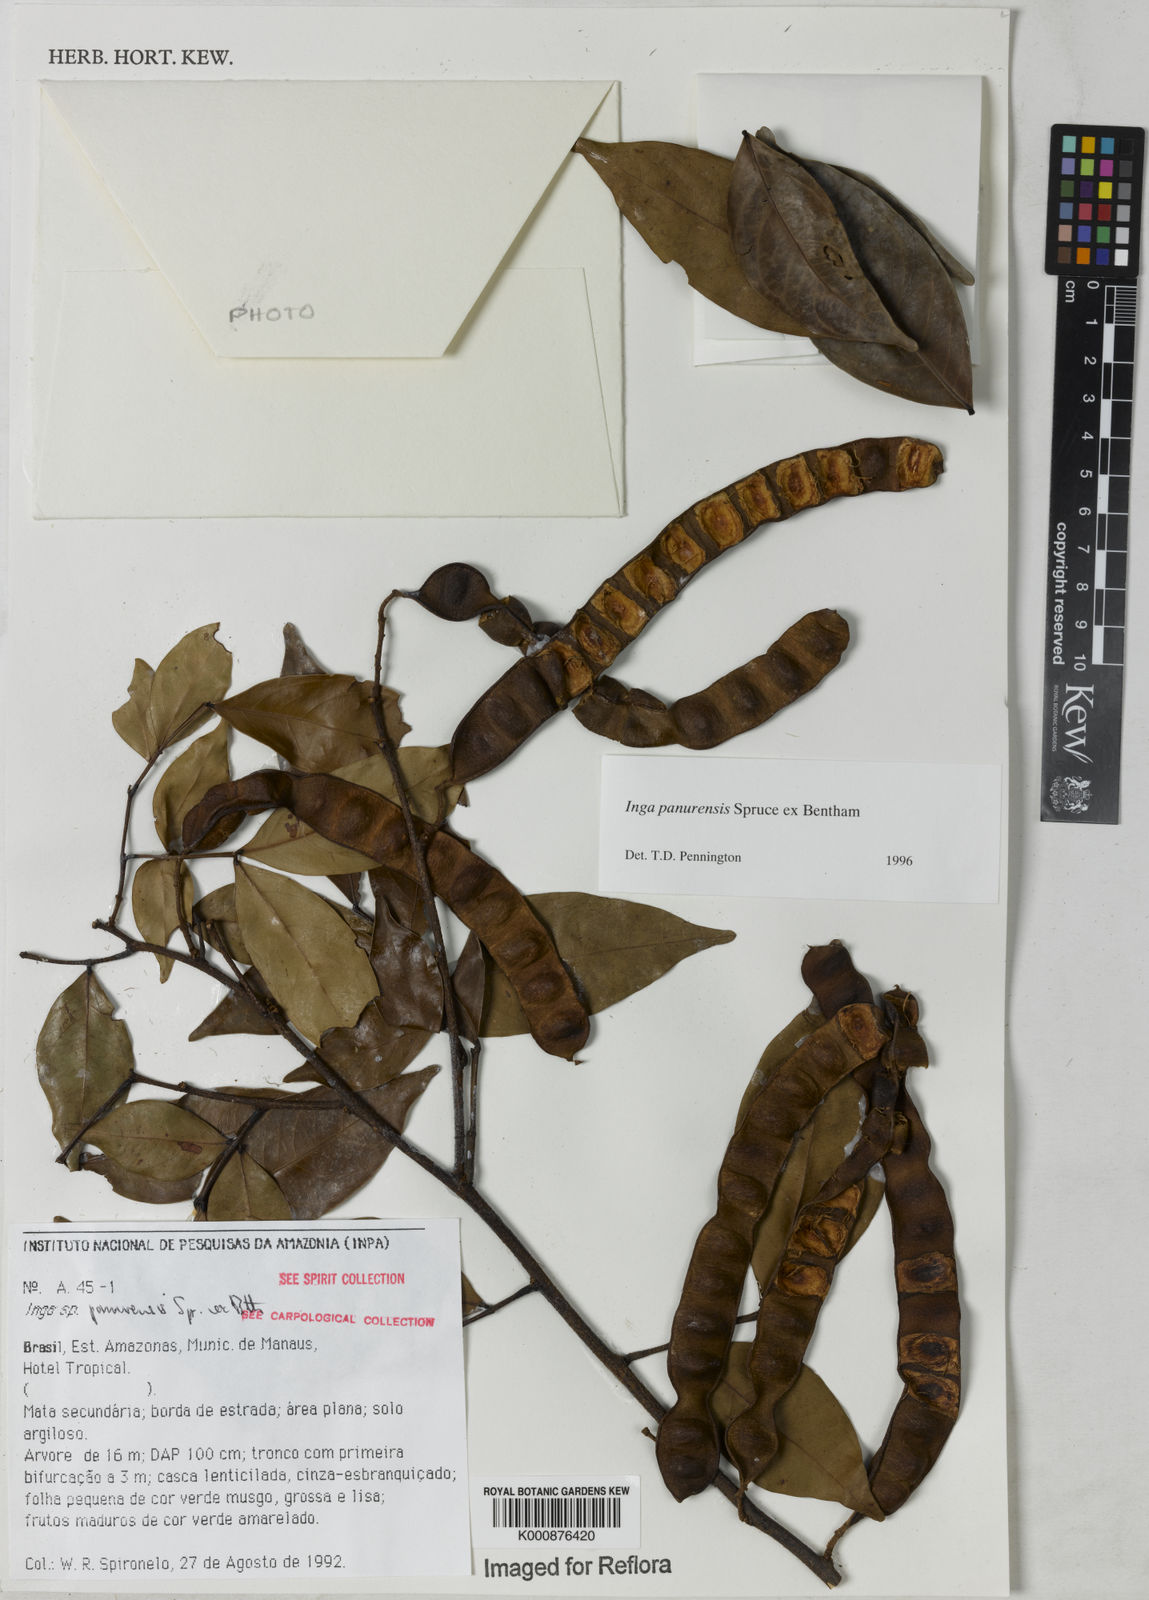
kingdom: Plantae
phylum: Tracheophyta
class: Magnoliopsida
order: Fabales
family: Fabaceae
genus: Inga
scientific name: Inga panurensis
